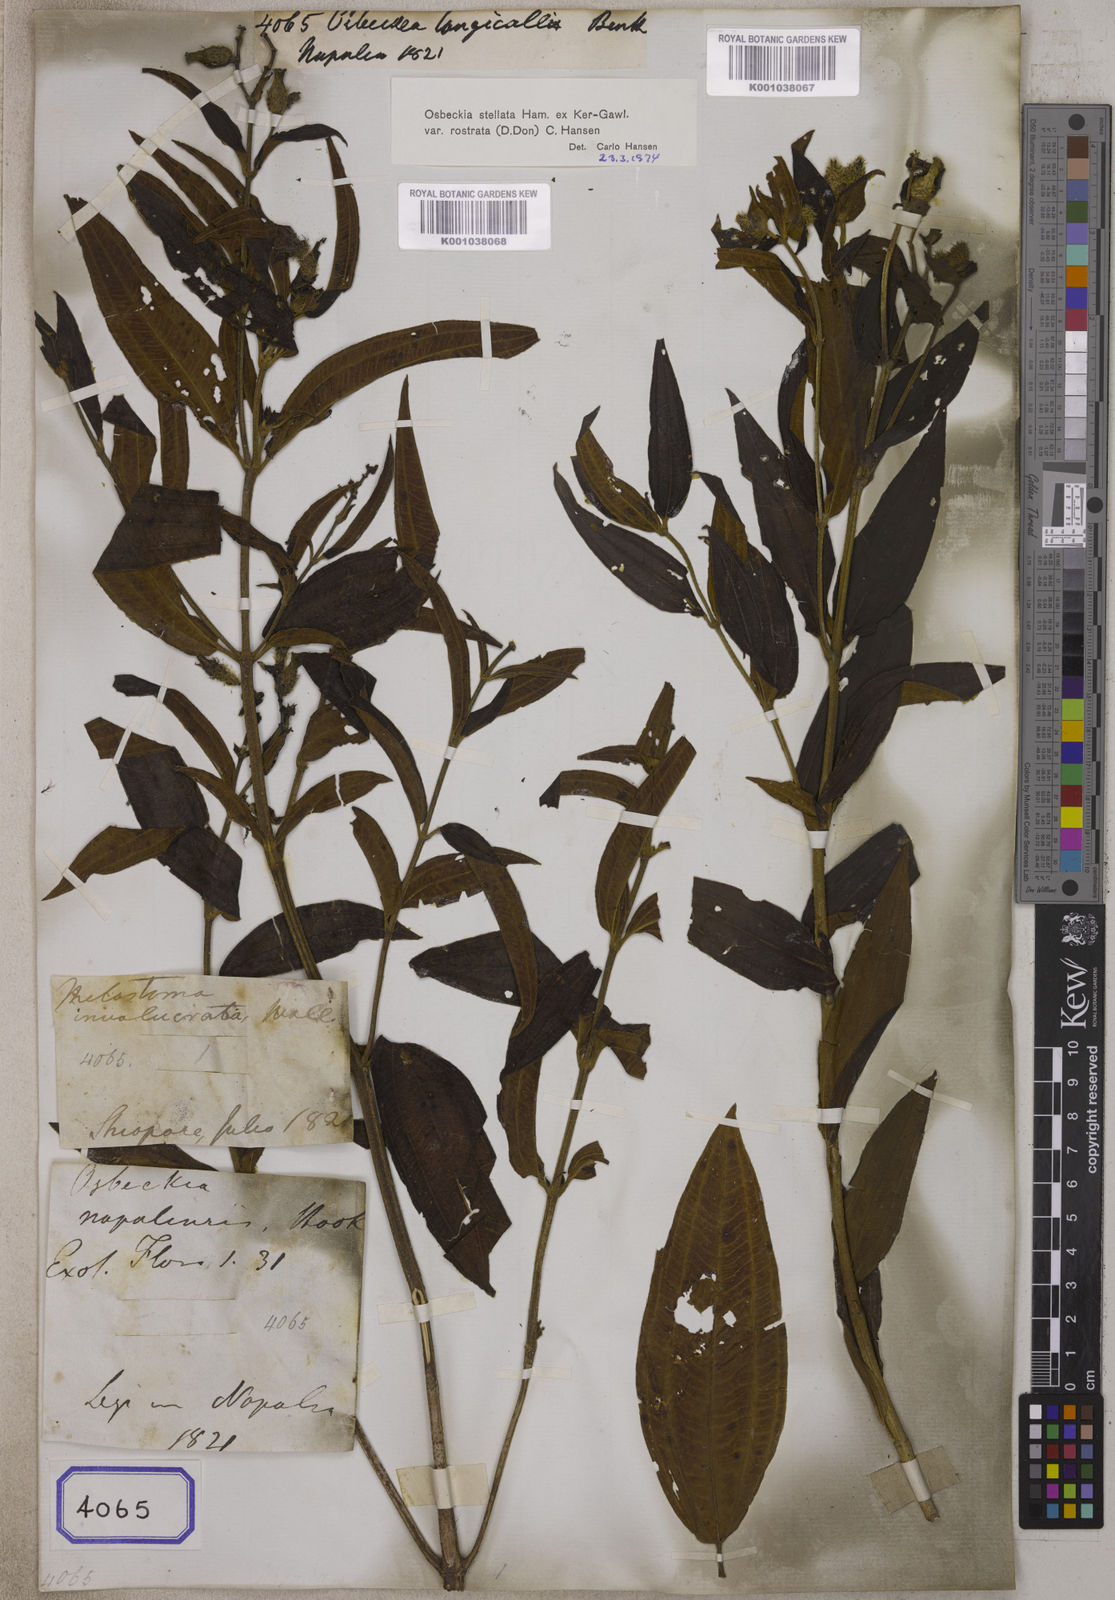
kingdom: Plantae
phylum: Tracheophyta
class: Magnoliopsida
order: Myrtales
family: Melastomataceae
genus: Osbeckia
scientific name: Osbeckia rostrata
